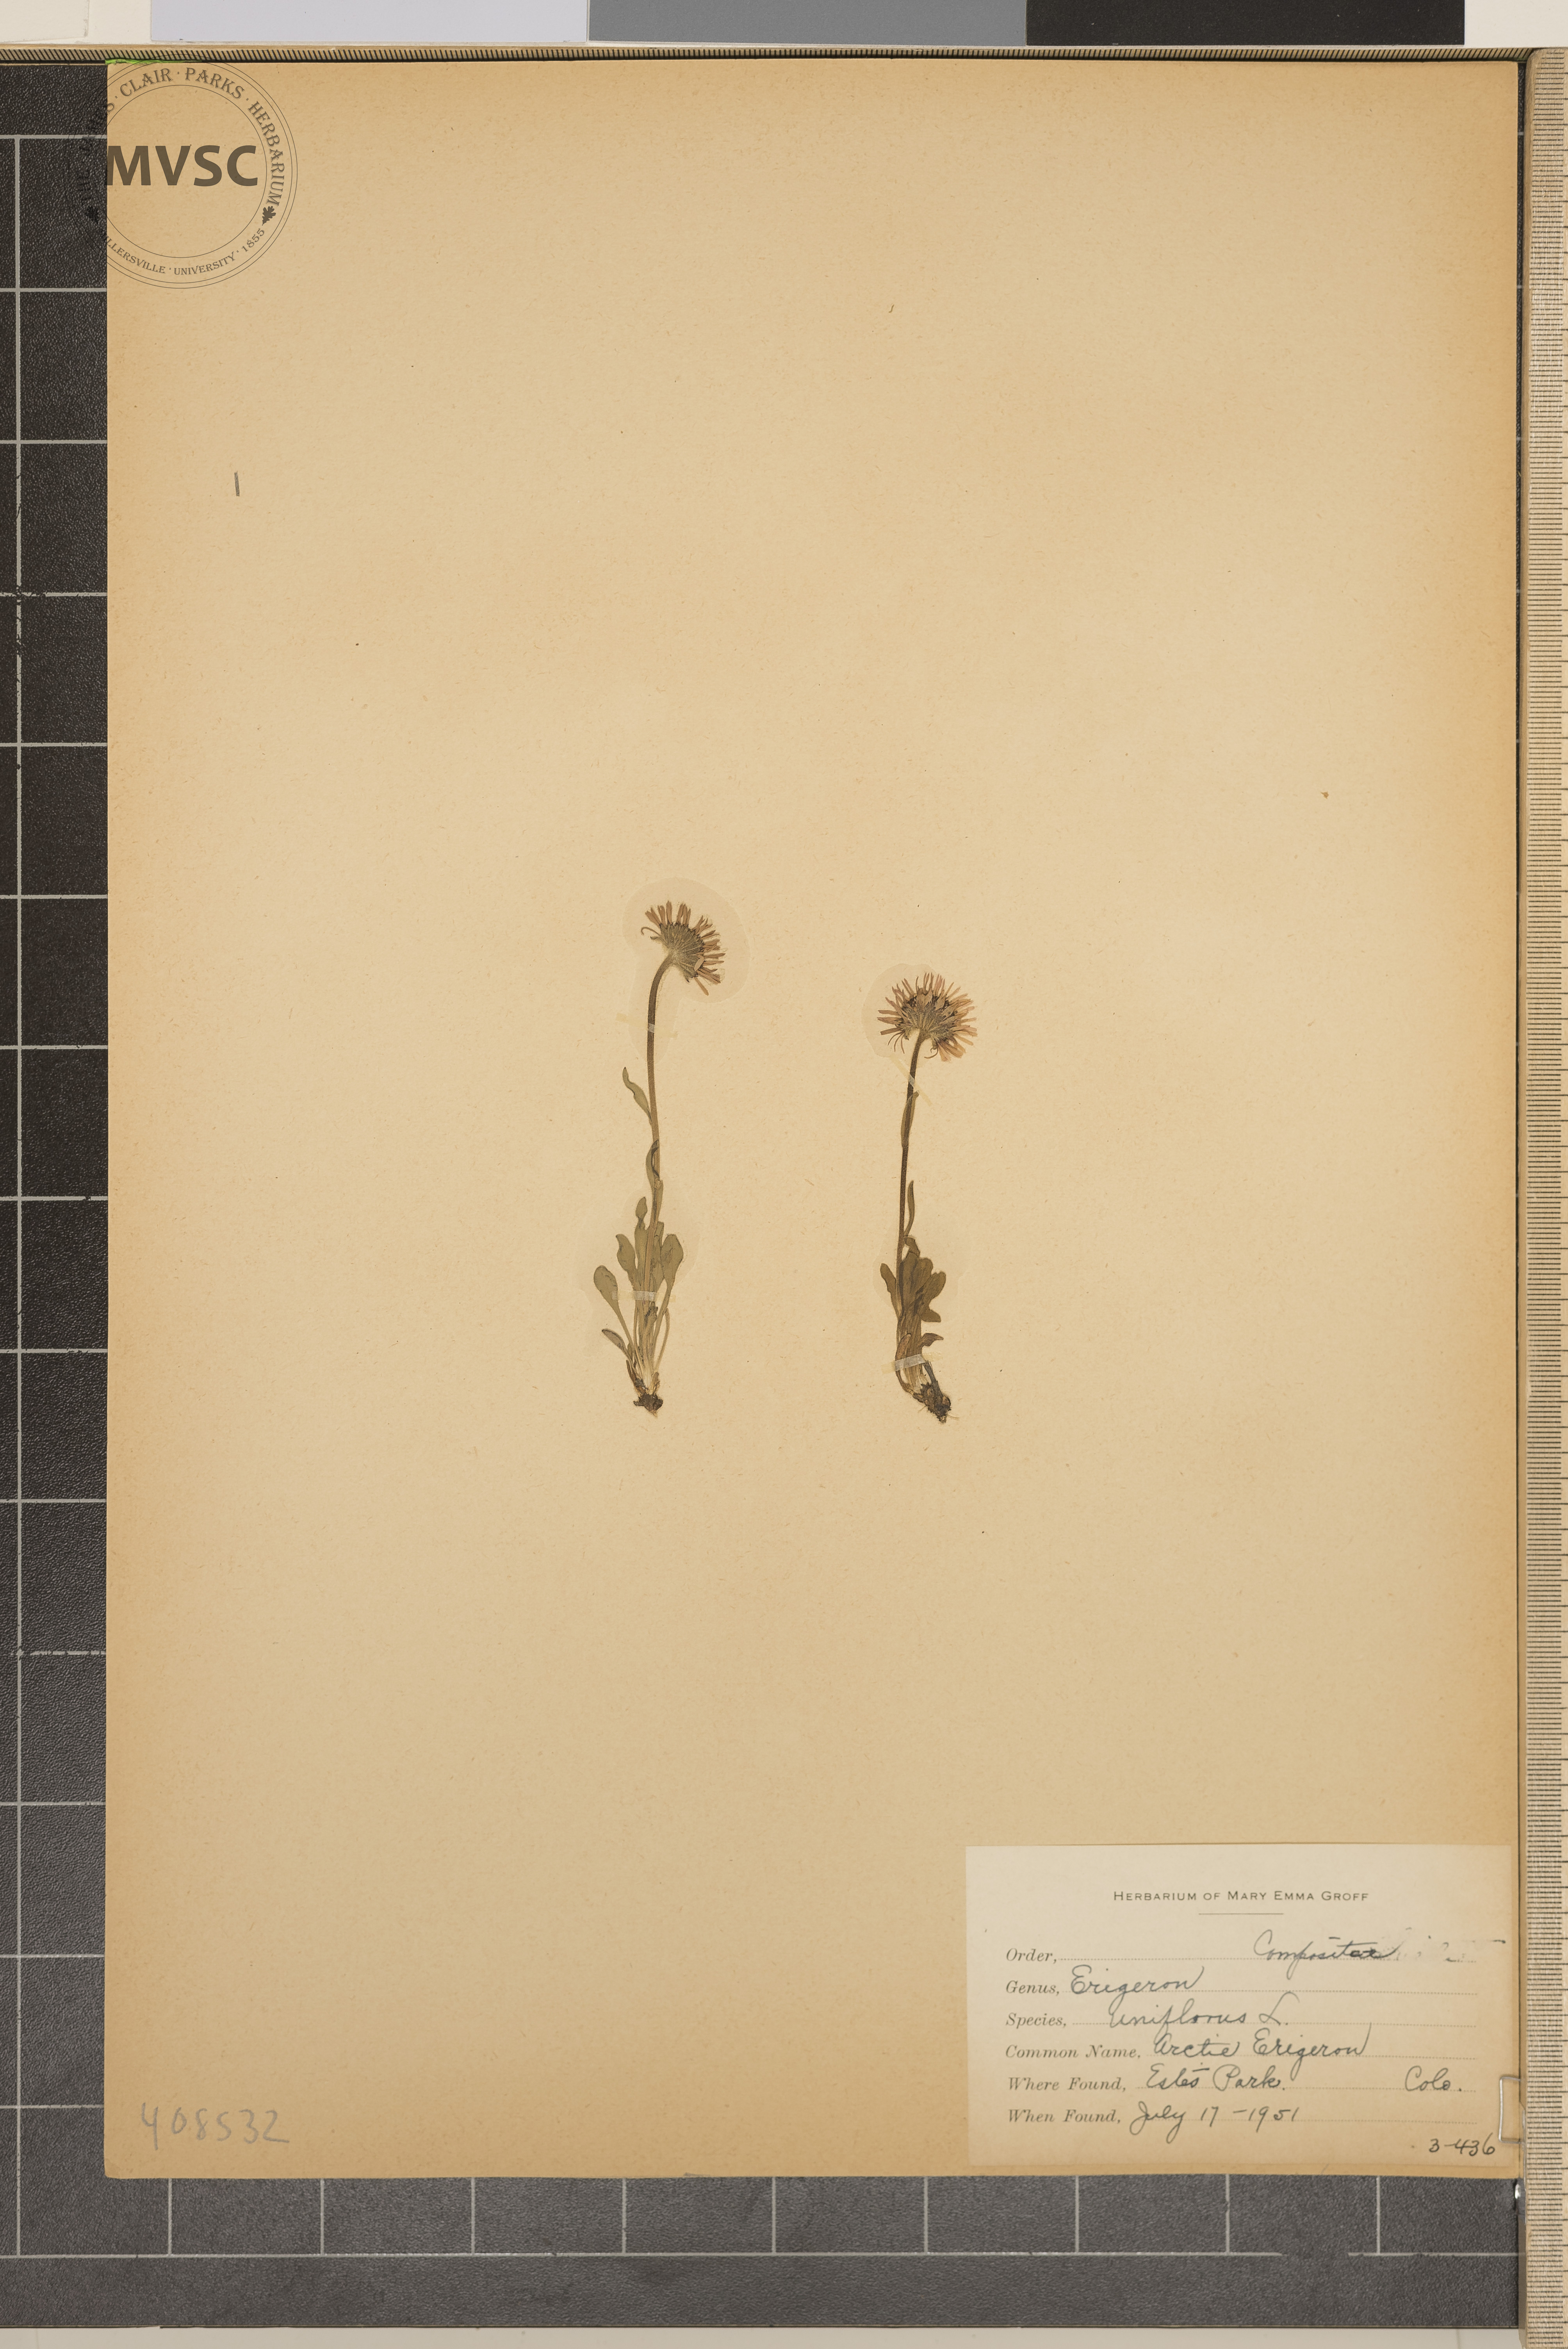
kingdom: Plantae
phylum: Tracheophyta
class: Magnoliopsida
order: Asterales
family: Asteraceae
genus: Erigeron
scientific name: Erigeron uniflorus
